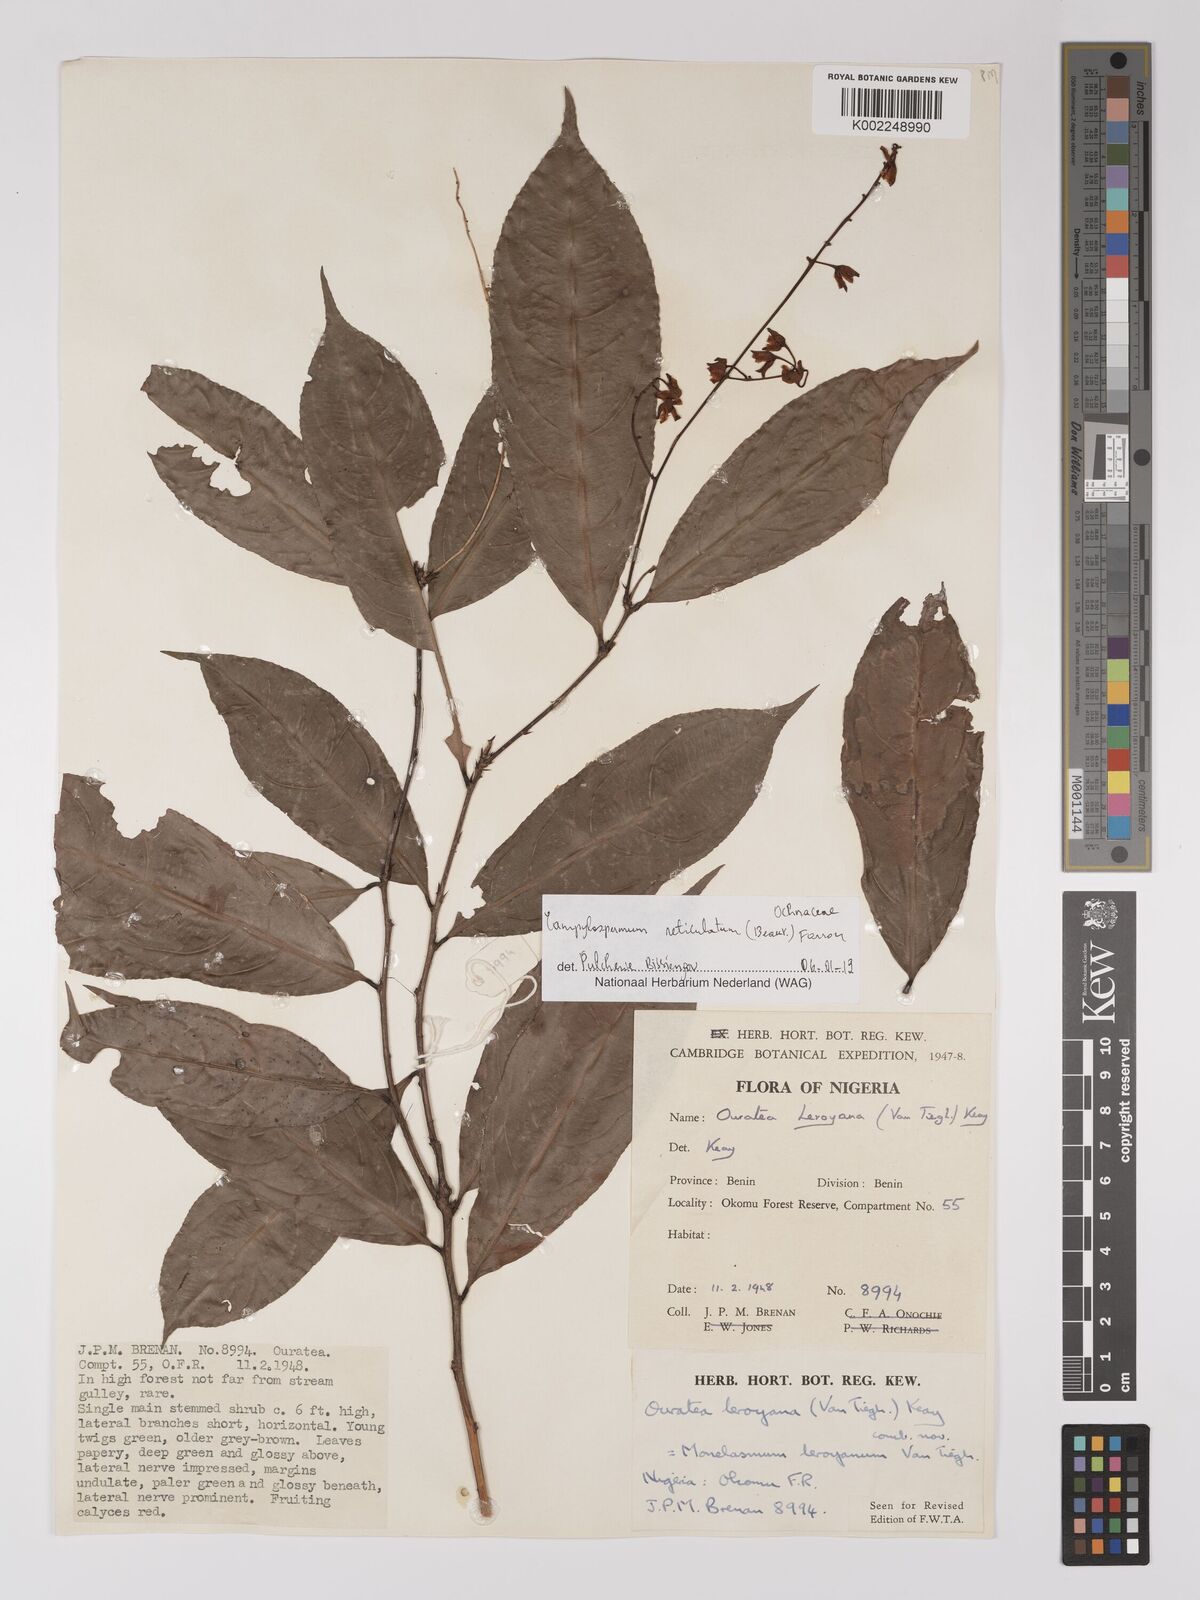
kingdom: Plantae
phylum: Tracheophyta
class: Magnoliopsida
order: Malpighiales
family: Ochnaceae
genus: Campylospermum
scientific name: Campylospermum reticulatum
